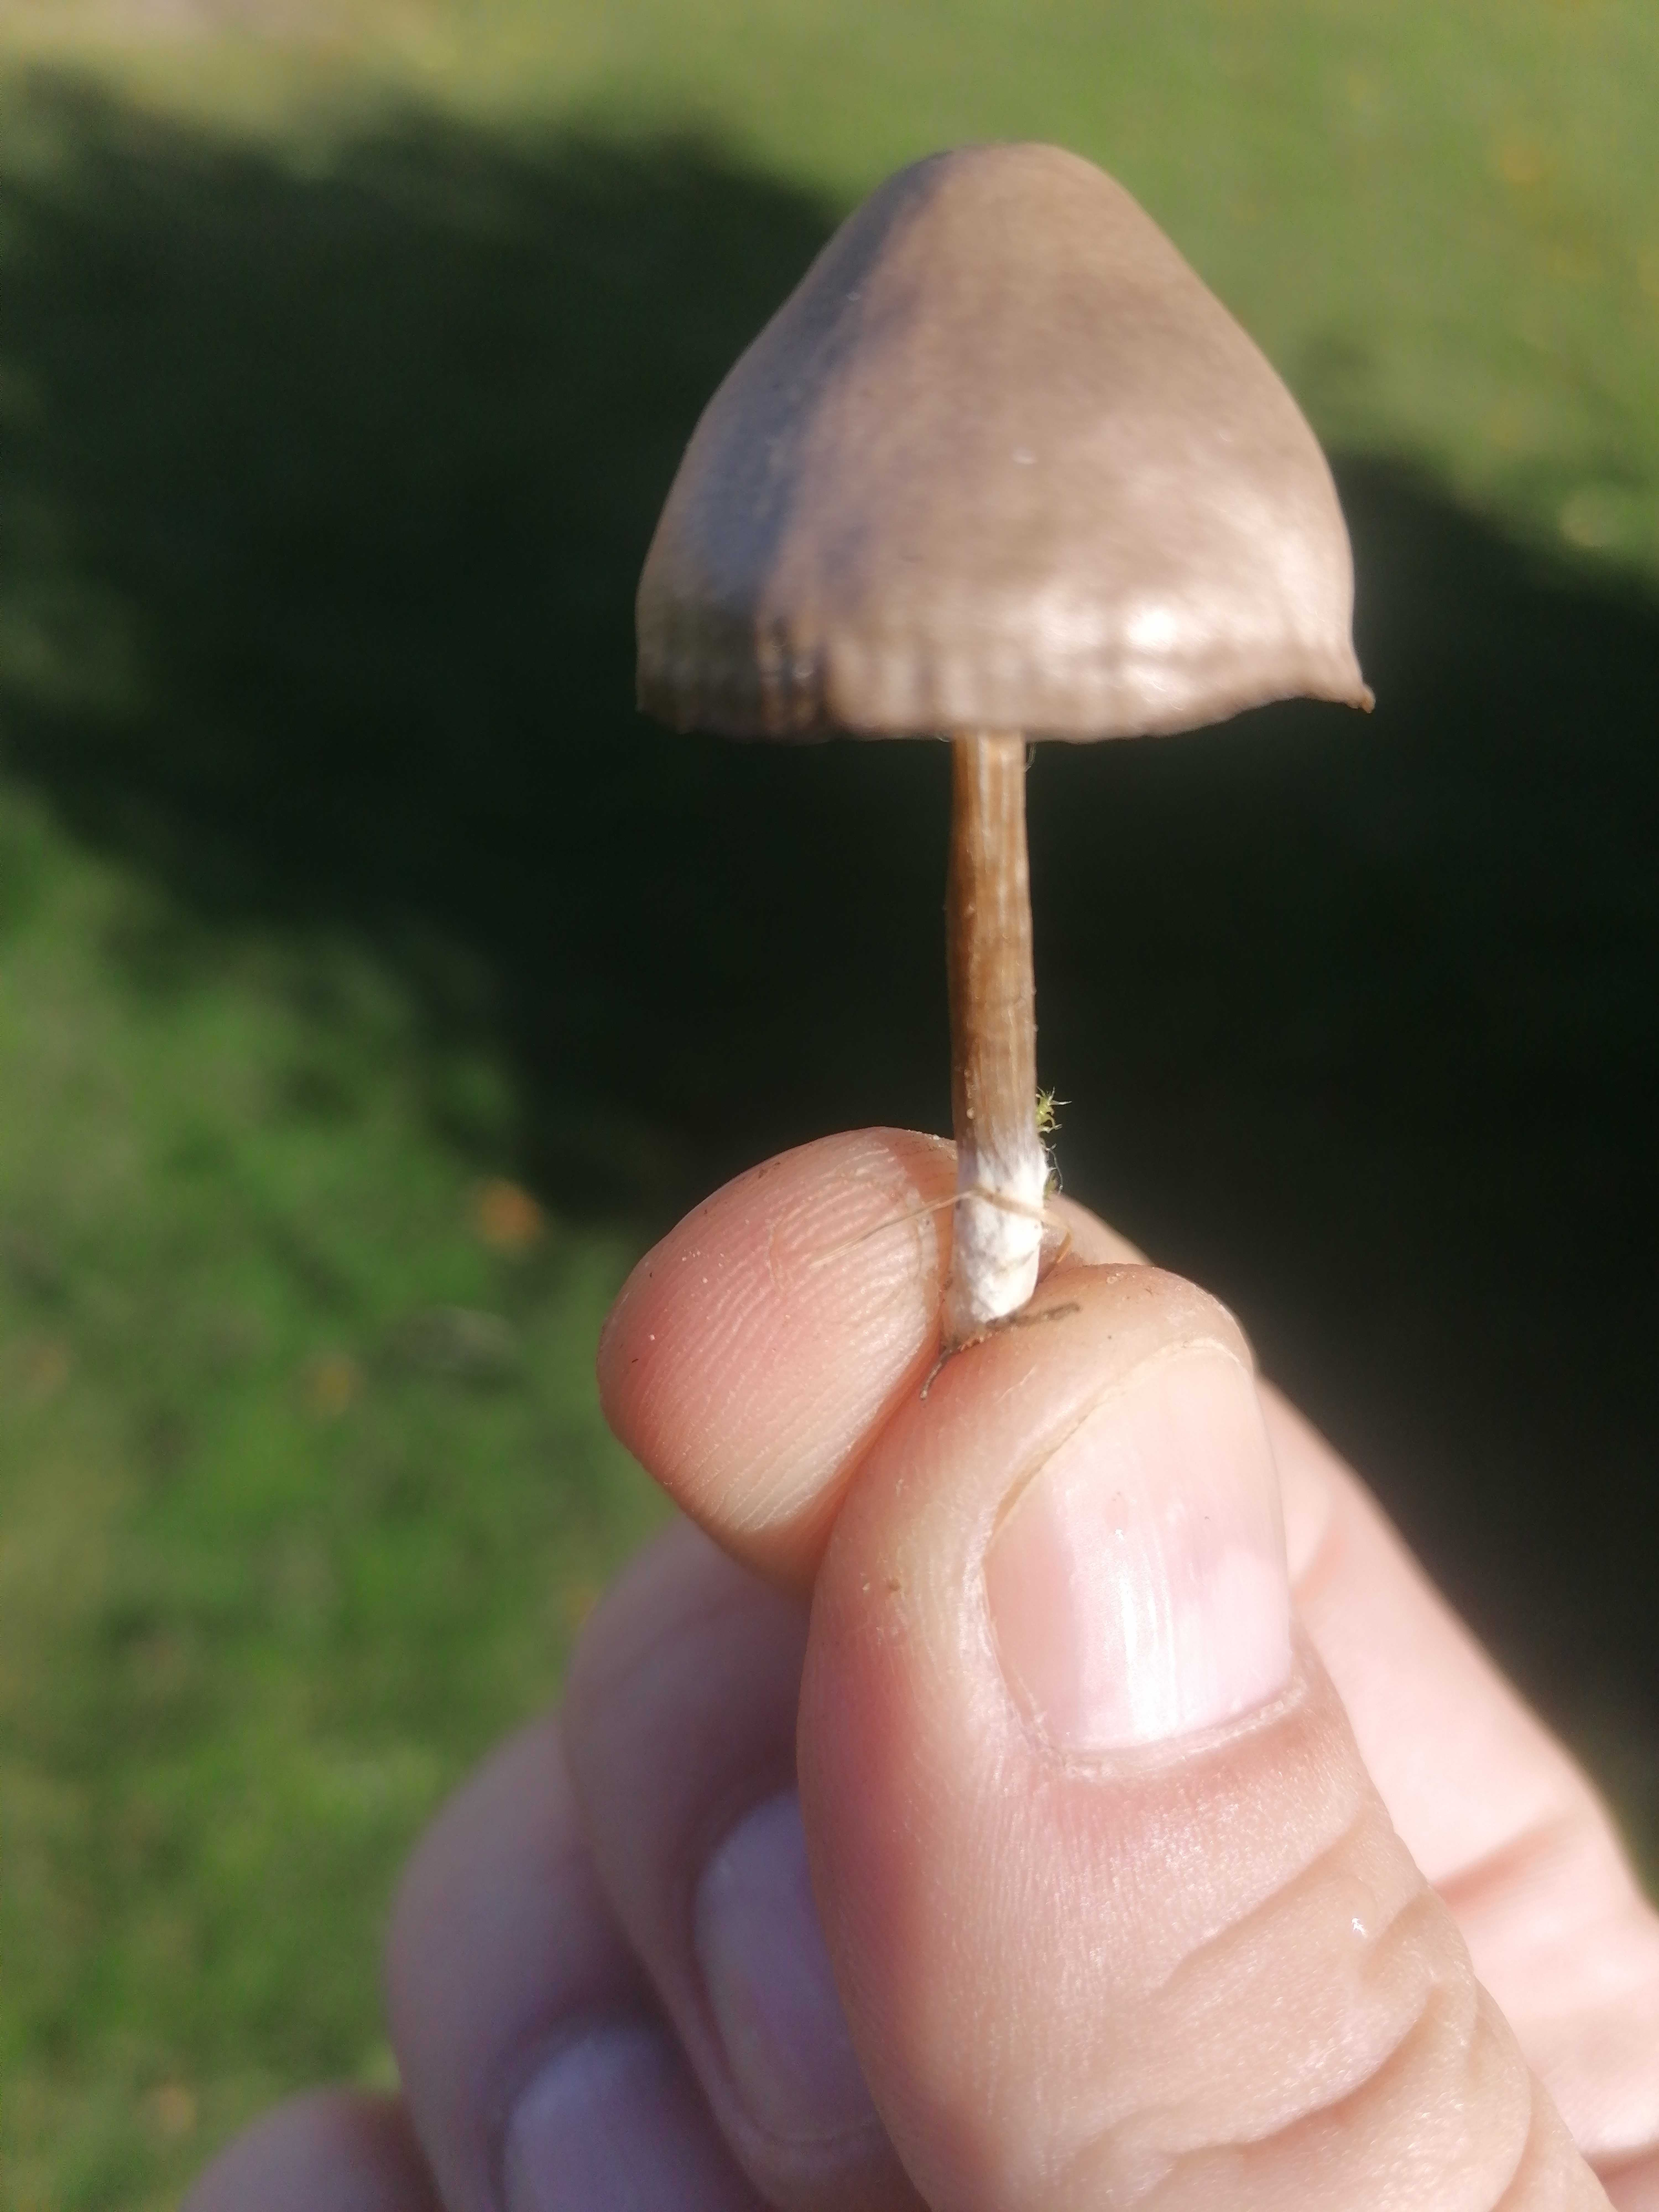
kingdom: Fungi
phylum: Basidiomycota
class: Agaricomycetes
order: Agaricales
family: Entolomataceae
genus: Entoloma
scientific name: Entoloma
